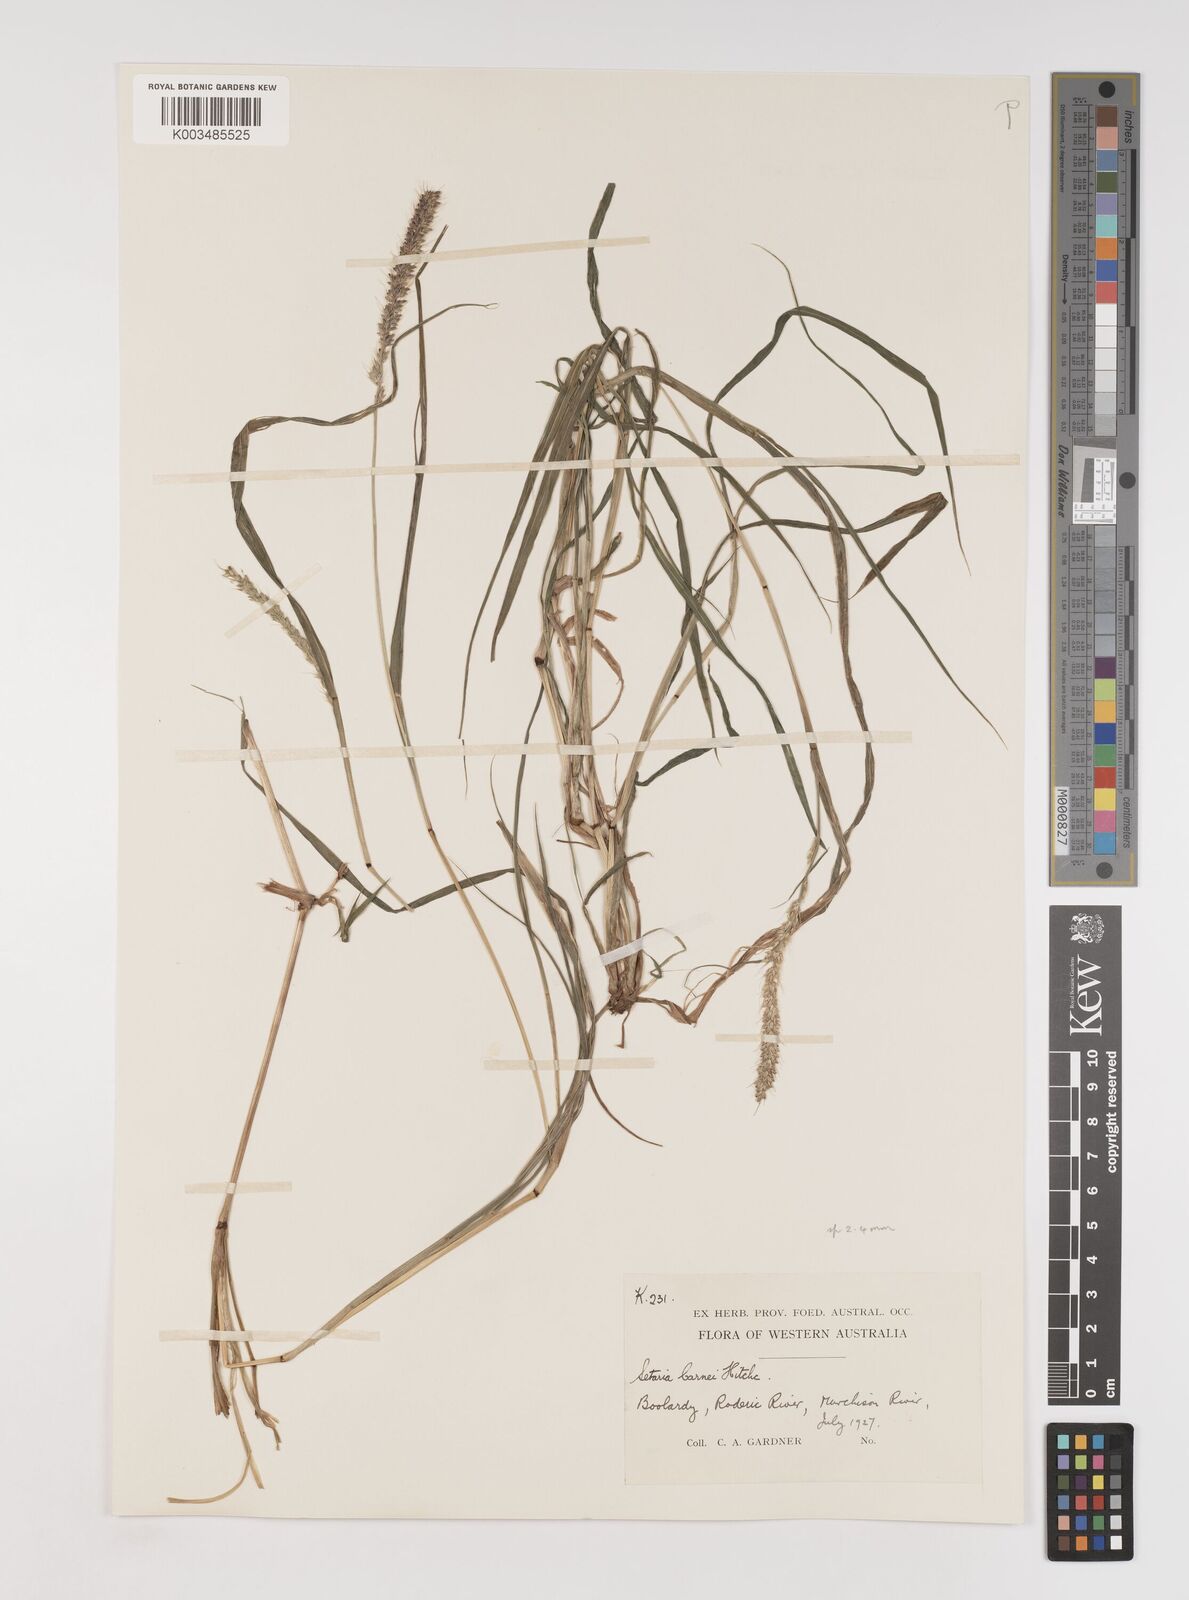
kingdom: Plantae
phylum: Tracheophyta
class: Liliopsida
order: Poales
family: Poaceae
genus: Setaria
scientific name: Setaria verticillata
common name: Hooked bristlegrass
